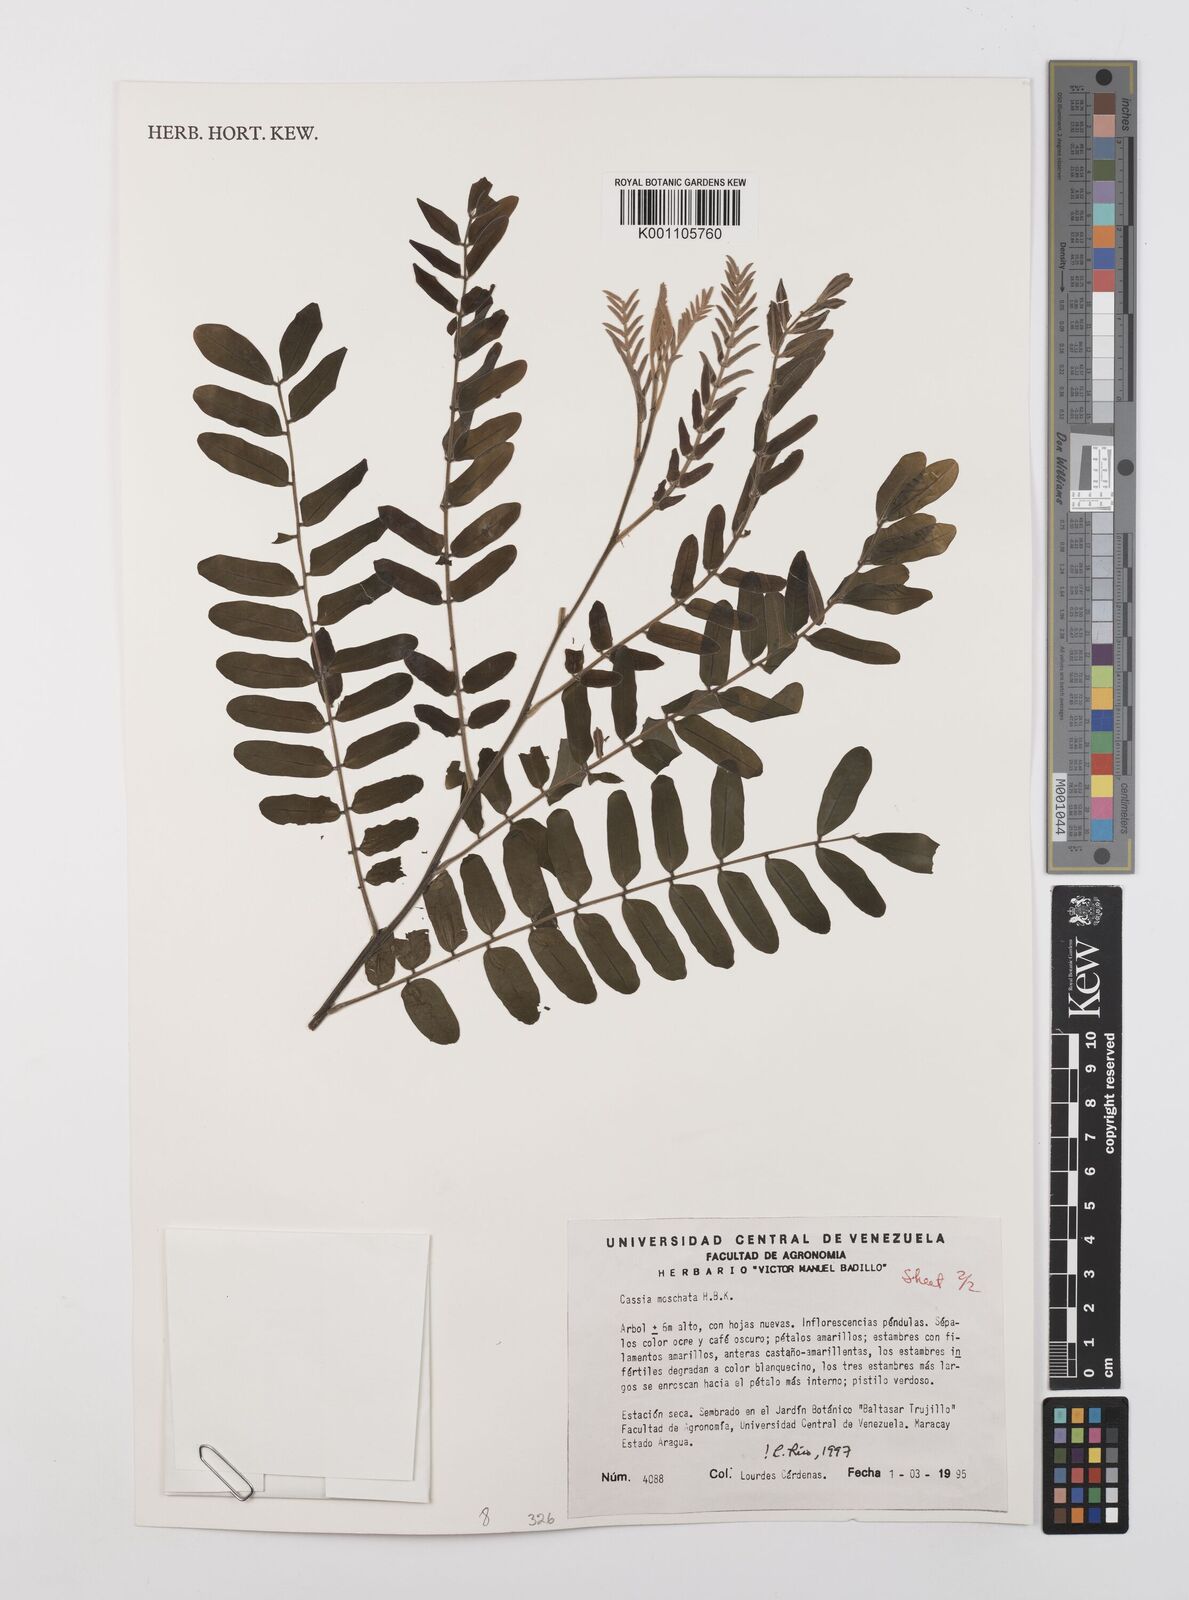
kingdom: Plantae
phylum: Tracheophyta
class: Magnoliopsida
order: Fabales
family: Fabaceae
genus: Cassia
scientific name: Cassia moschata
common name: Bronze shower tree
